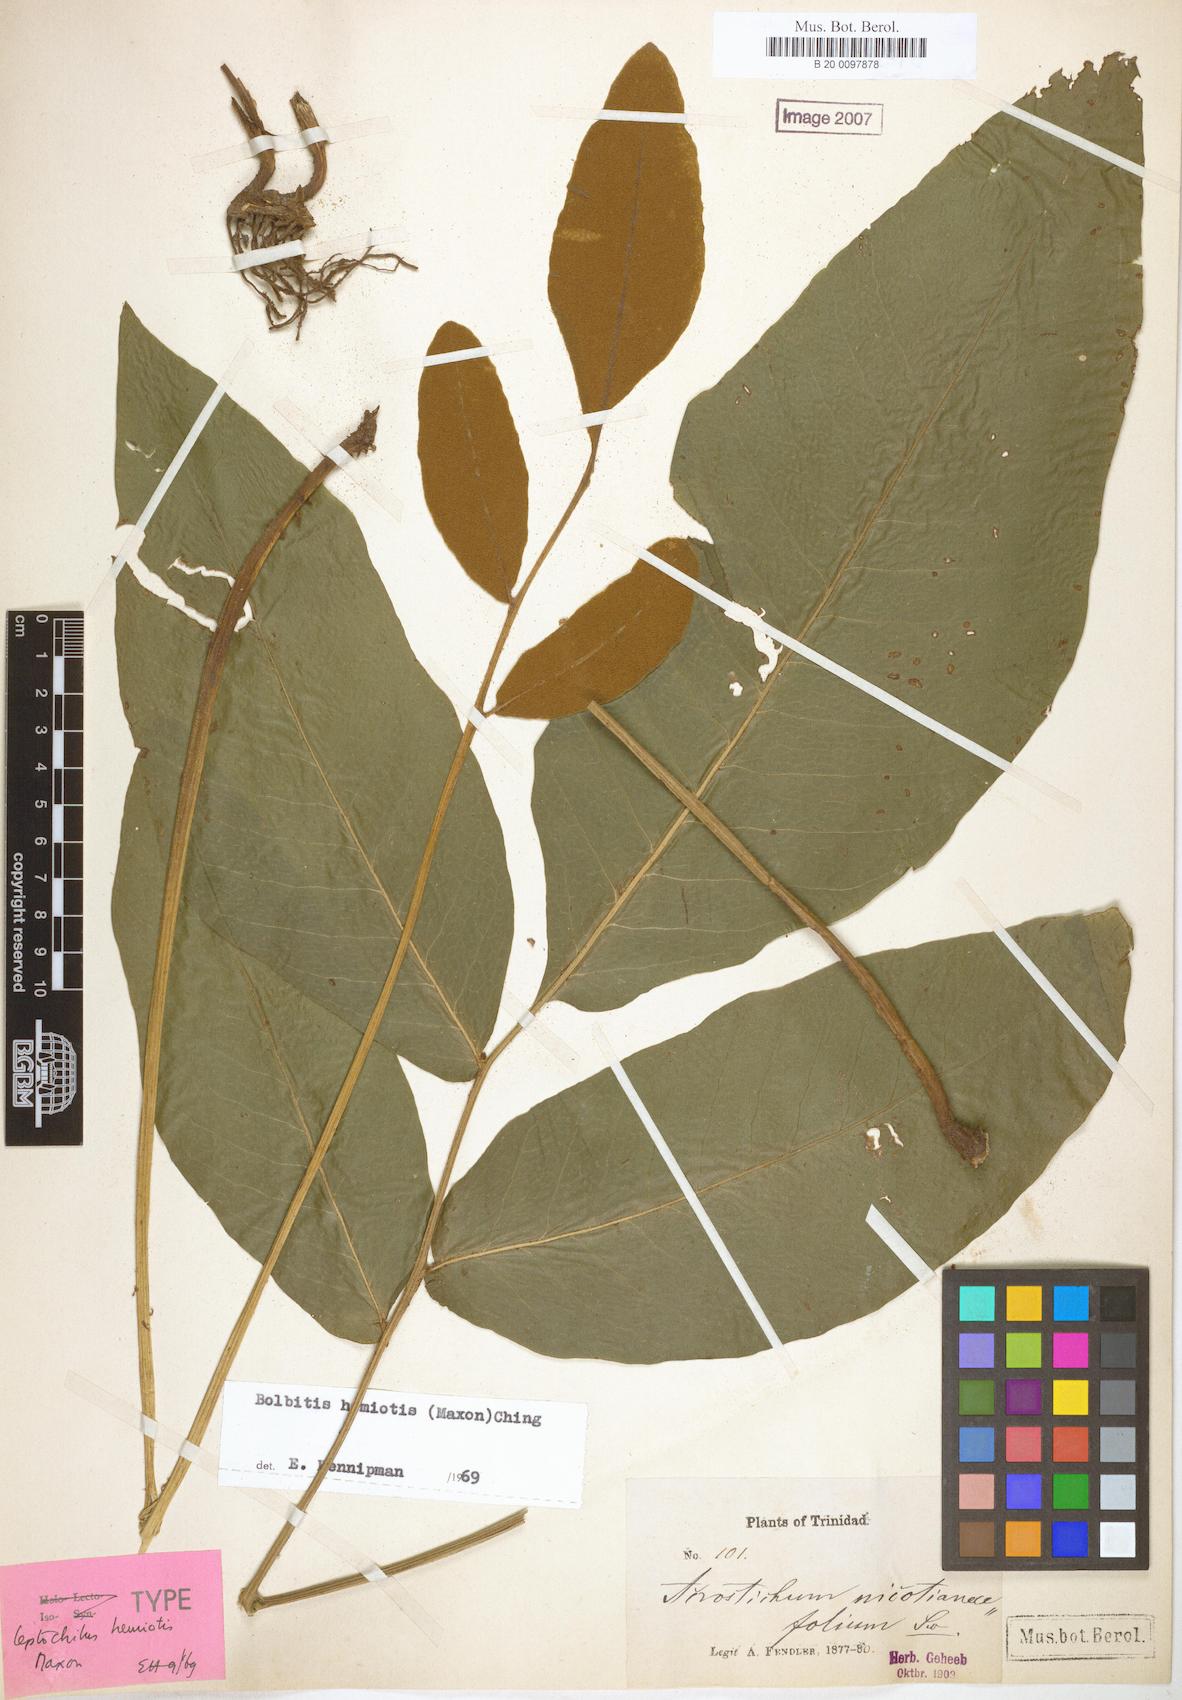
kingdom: Plantae
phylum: Tracheophyta
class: Polypodiopsida
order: Polypodiales
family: Dryopteridaceae
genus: Mickelia
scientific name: Mickelia hemiotis
